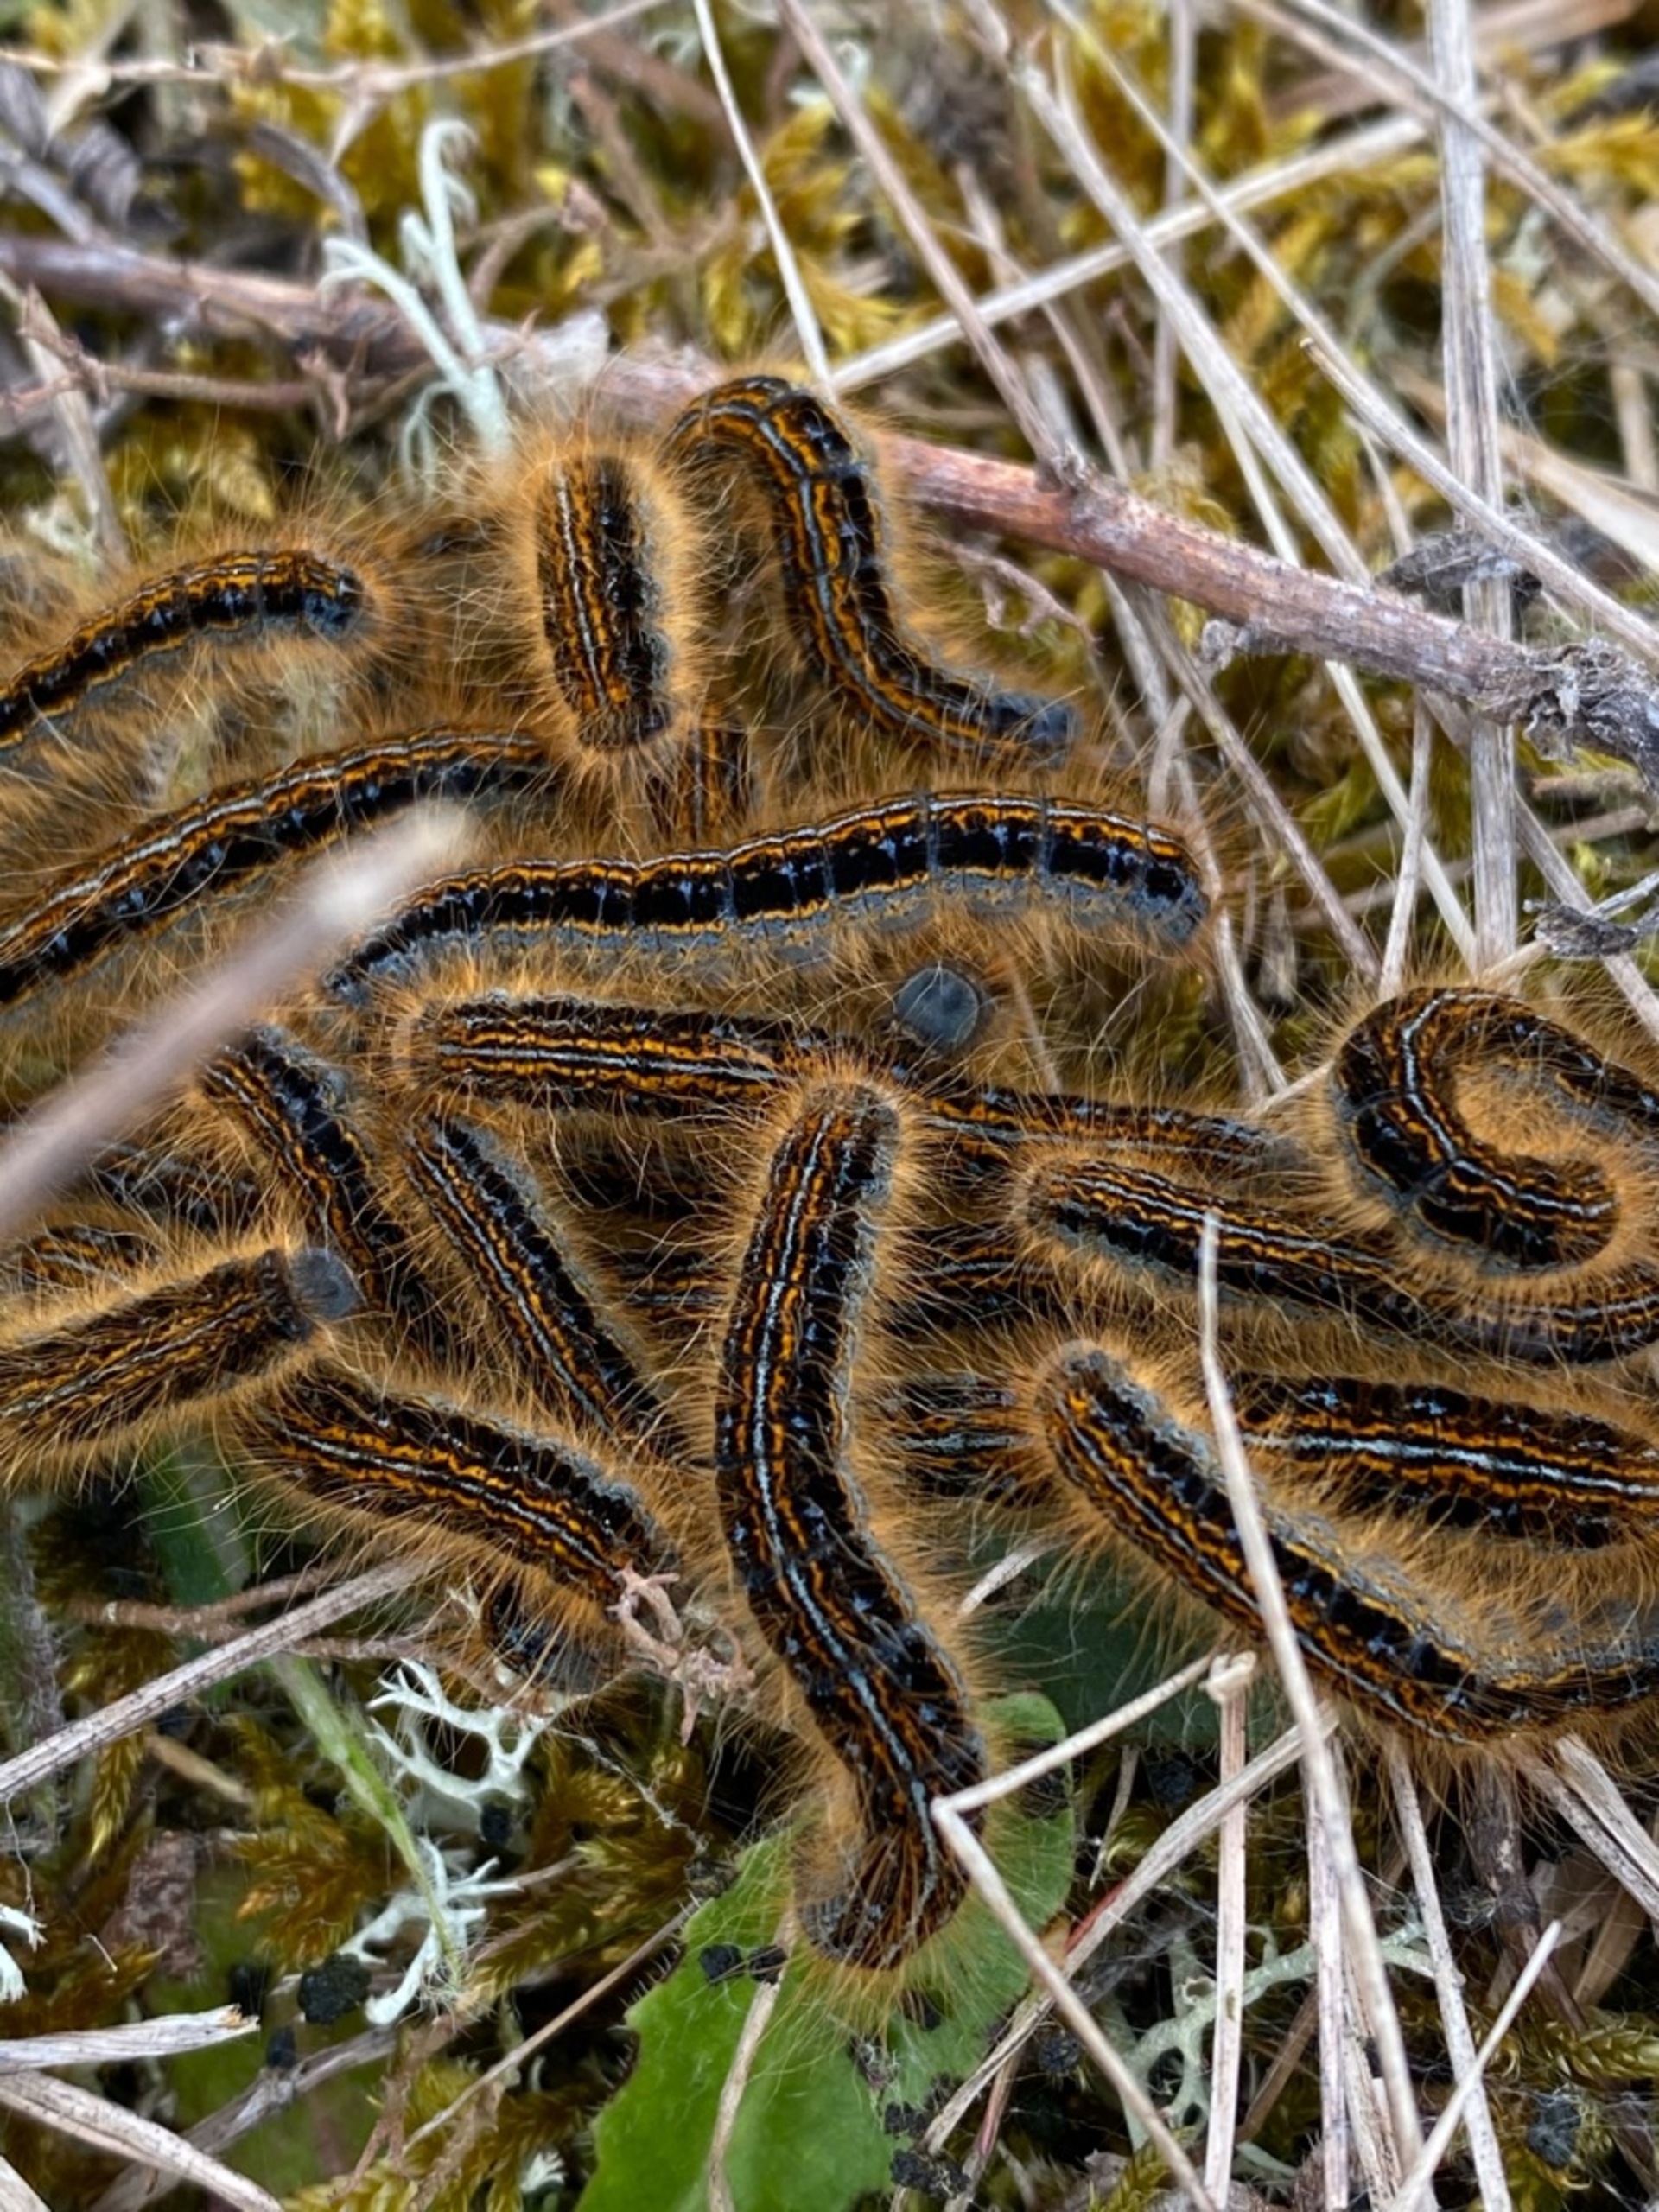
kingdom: Animalia
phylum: Arthropoda
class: Insecta
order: Lepidoptera
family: Lasiocampidae
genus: Malacosoma
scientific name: Malacosoma castrensis
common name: Redespinder
